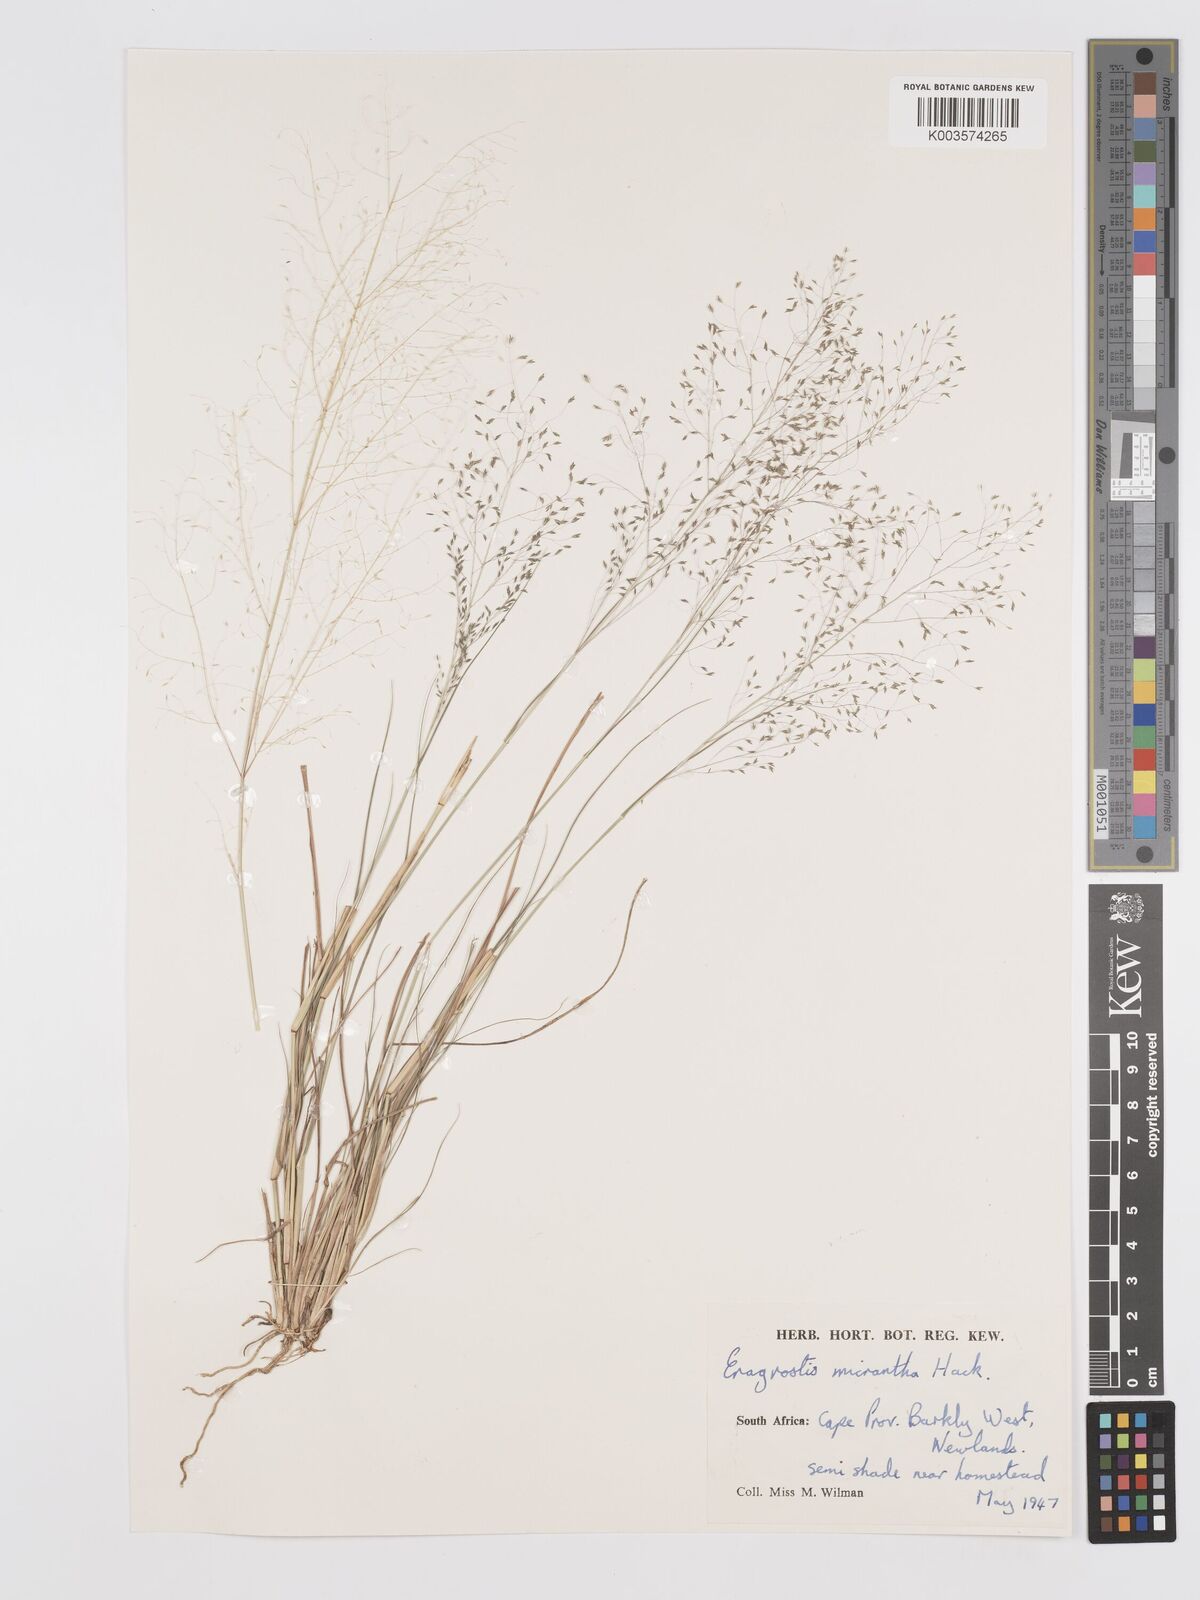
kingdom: Plantae
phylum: Tracheophyta
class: Liliopsida
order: Poales
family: Poaceae
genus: Eragrostis
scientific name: Eragrostis micrantha
